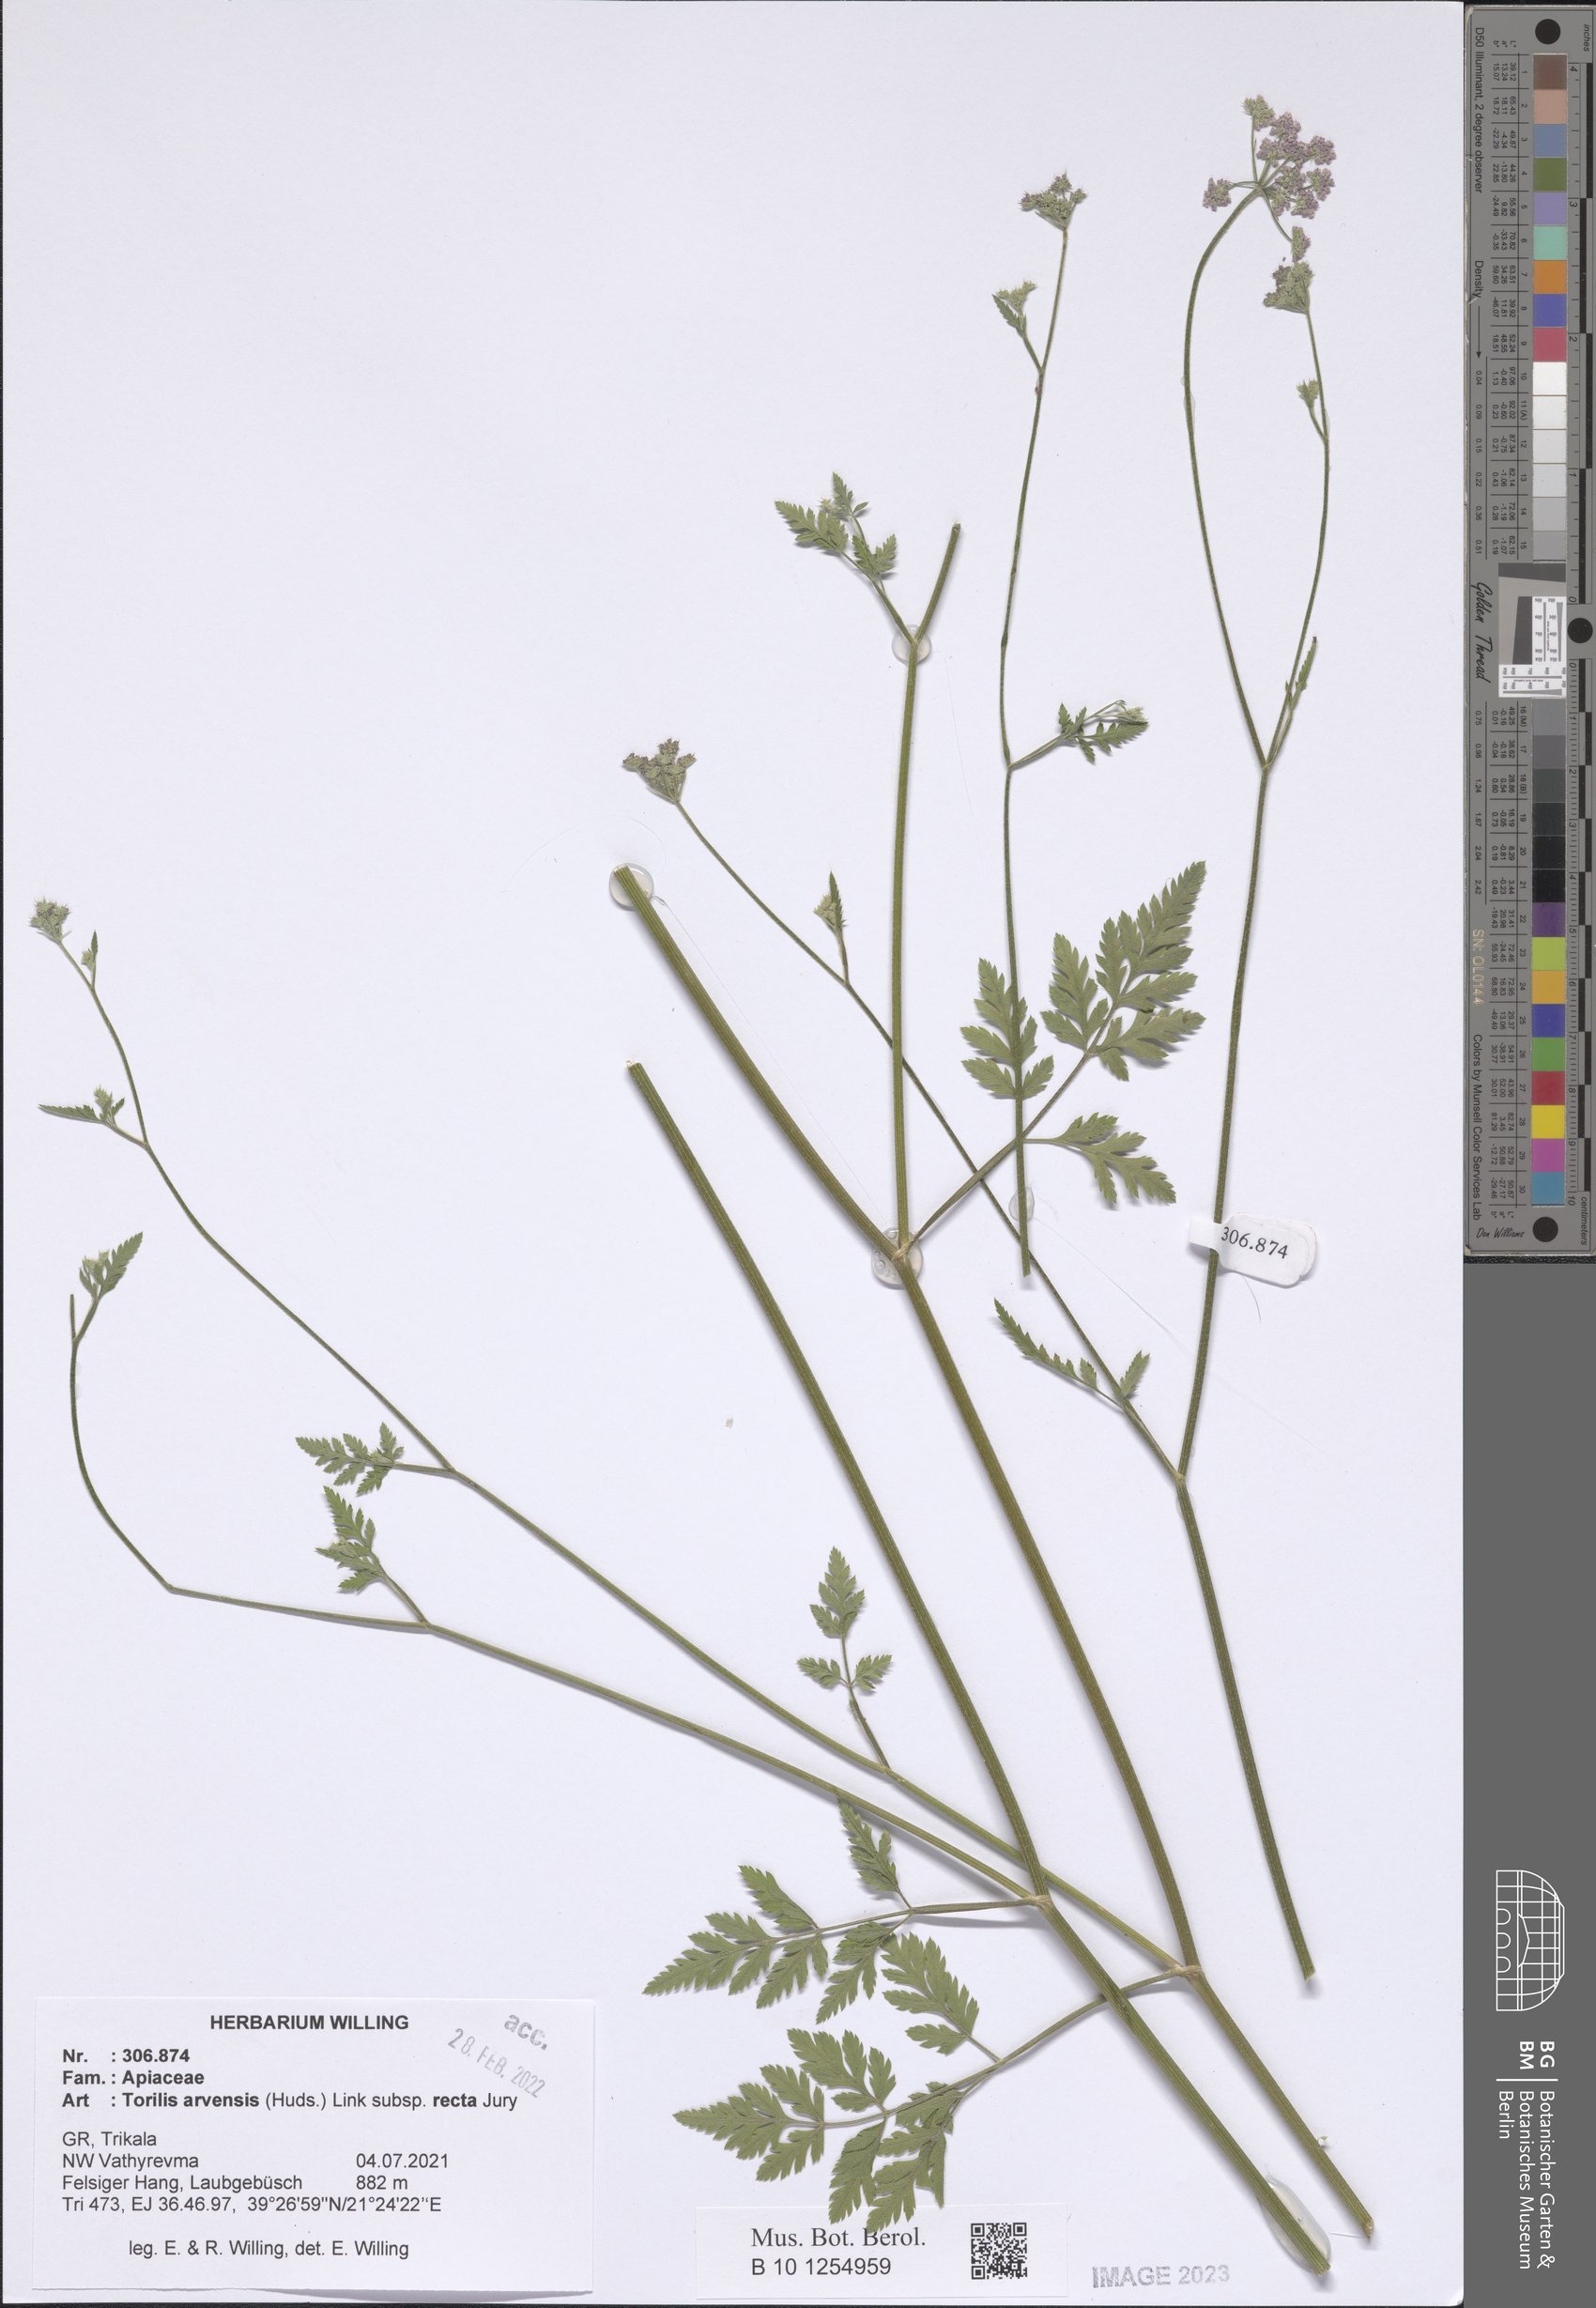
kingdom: Plantae
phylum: Tracheophyta
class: Magnoliopsida
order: Apiales
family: Apiaceae
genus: Torilis
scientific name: Torilis arvensis
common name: Spreading hedge-parsley
